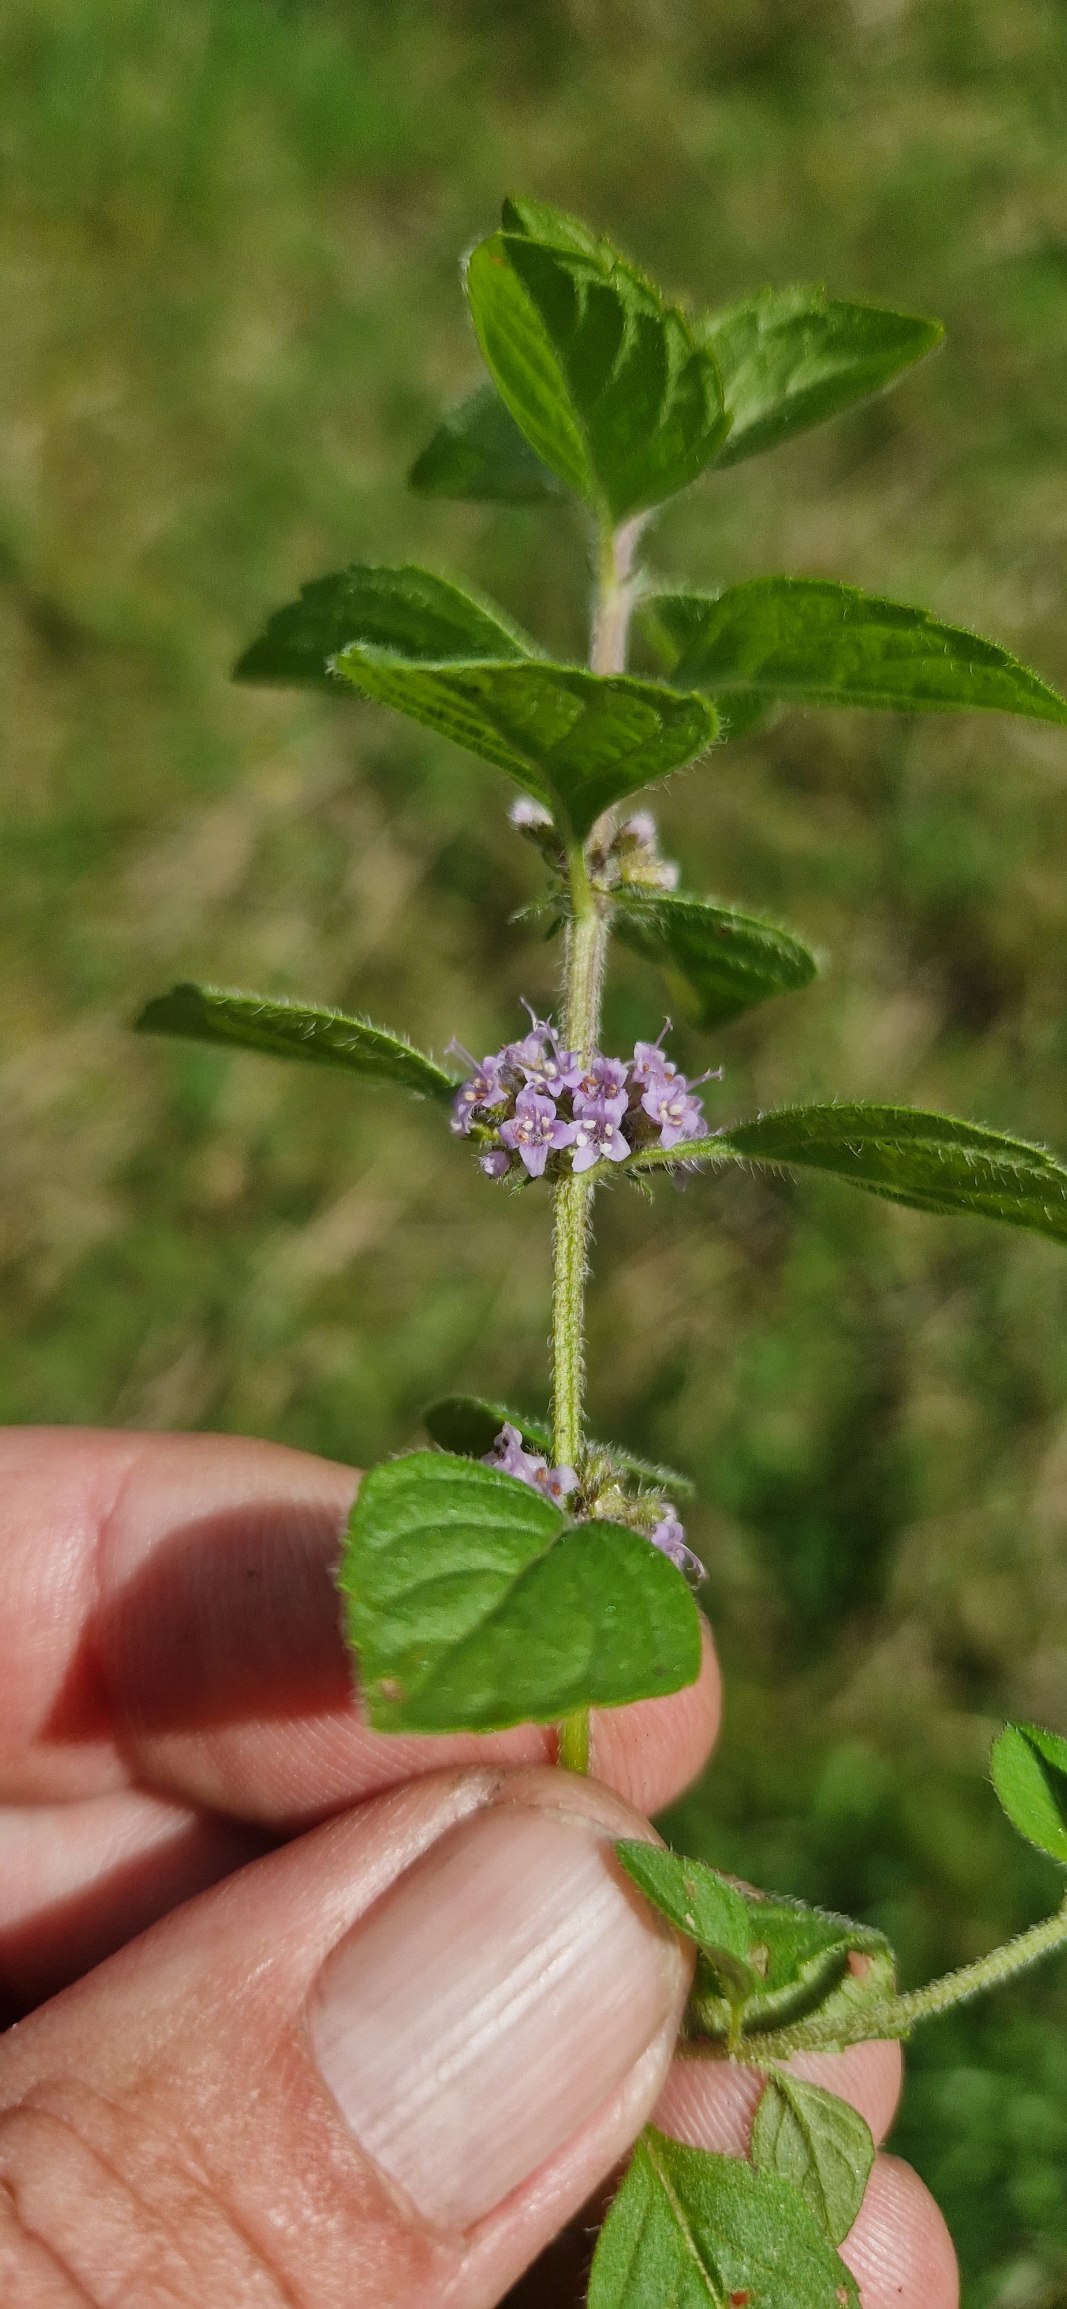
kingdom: Plantae
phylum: Tracheophyta
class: Magnoliopsida
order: Lamiales
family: Lamiaceae
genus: Mentha
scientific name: Mentha arvensis
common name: Ager-mynte
